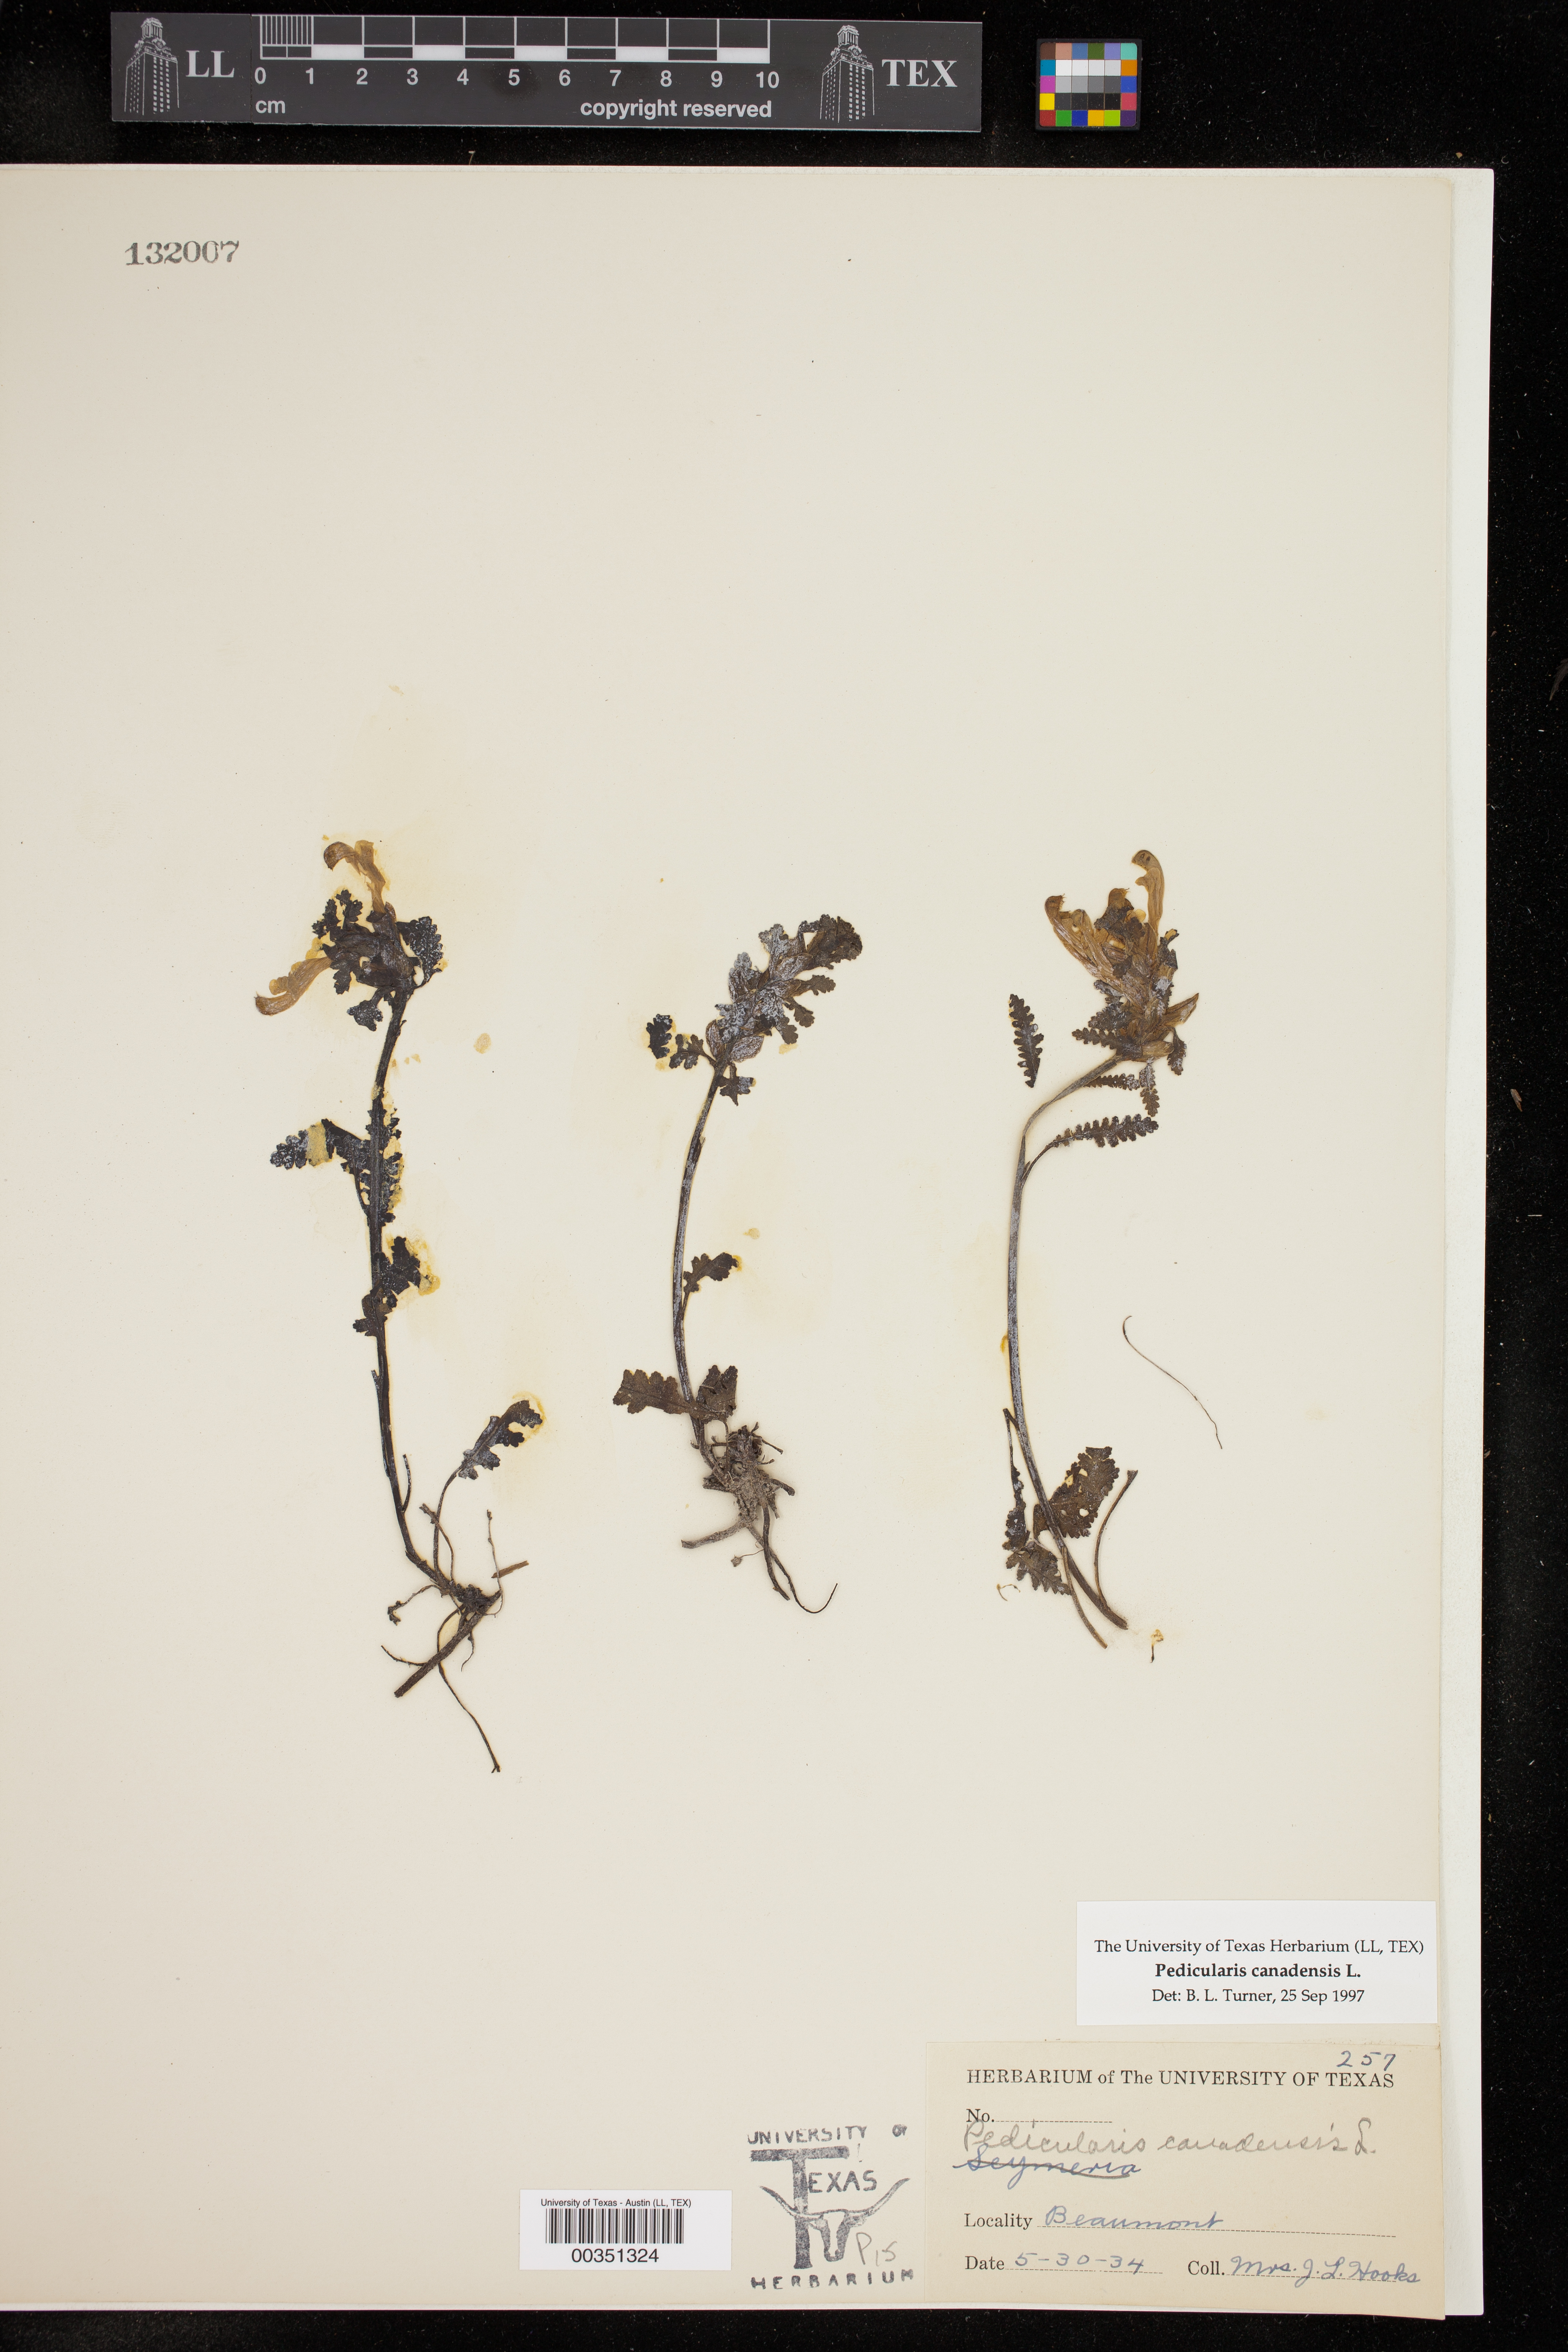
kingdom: Plantae
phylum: Tracheophyta
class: Magnoliopsida
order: Lamiales
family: Orobanchaceae
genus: Pedicularis
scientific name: Pedicularis canadensis
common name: Early lousewort
